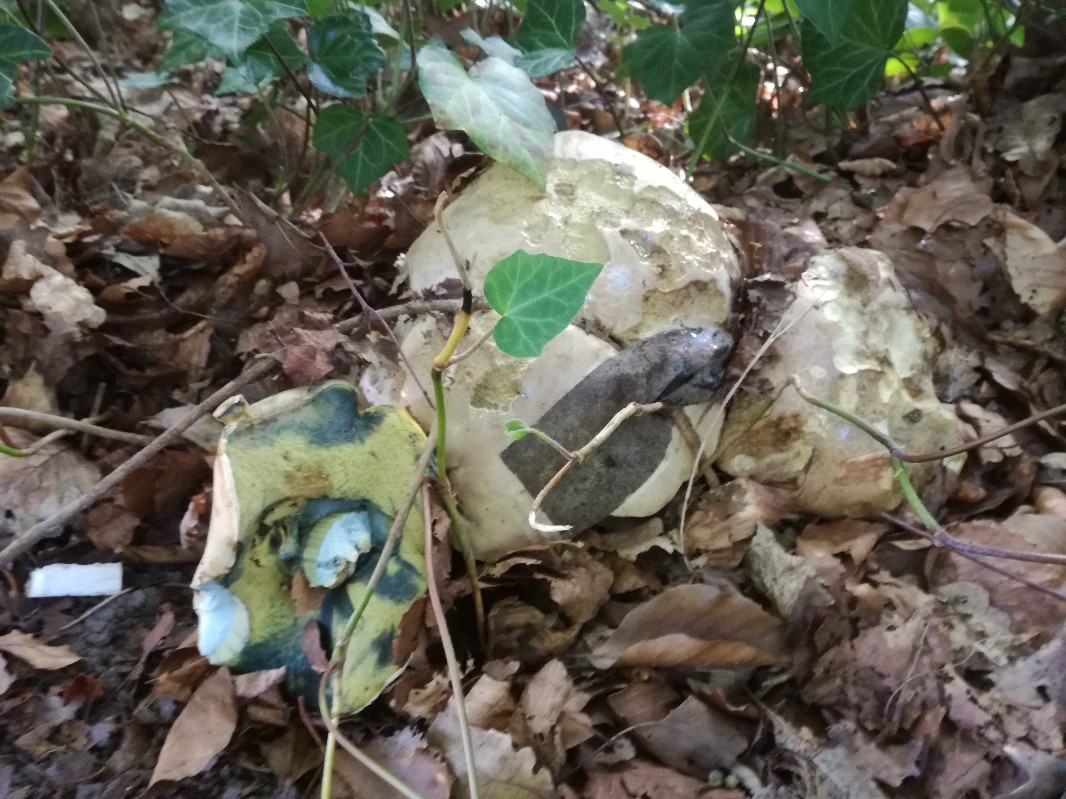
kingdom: Fungi
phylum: Basidiomycota
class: Agaricomycetes
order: Boletales
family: Boletaceae
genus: Caloboletus
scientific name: Caloboletus radicans
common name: rod-rørhat
